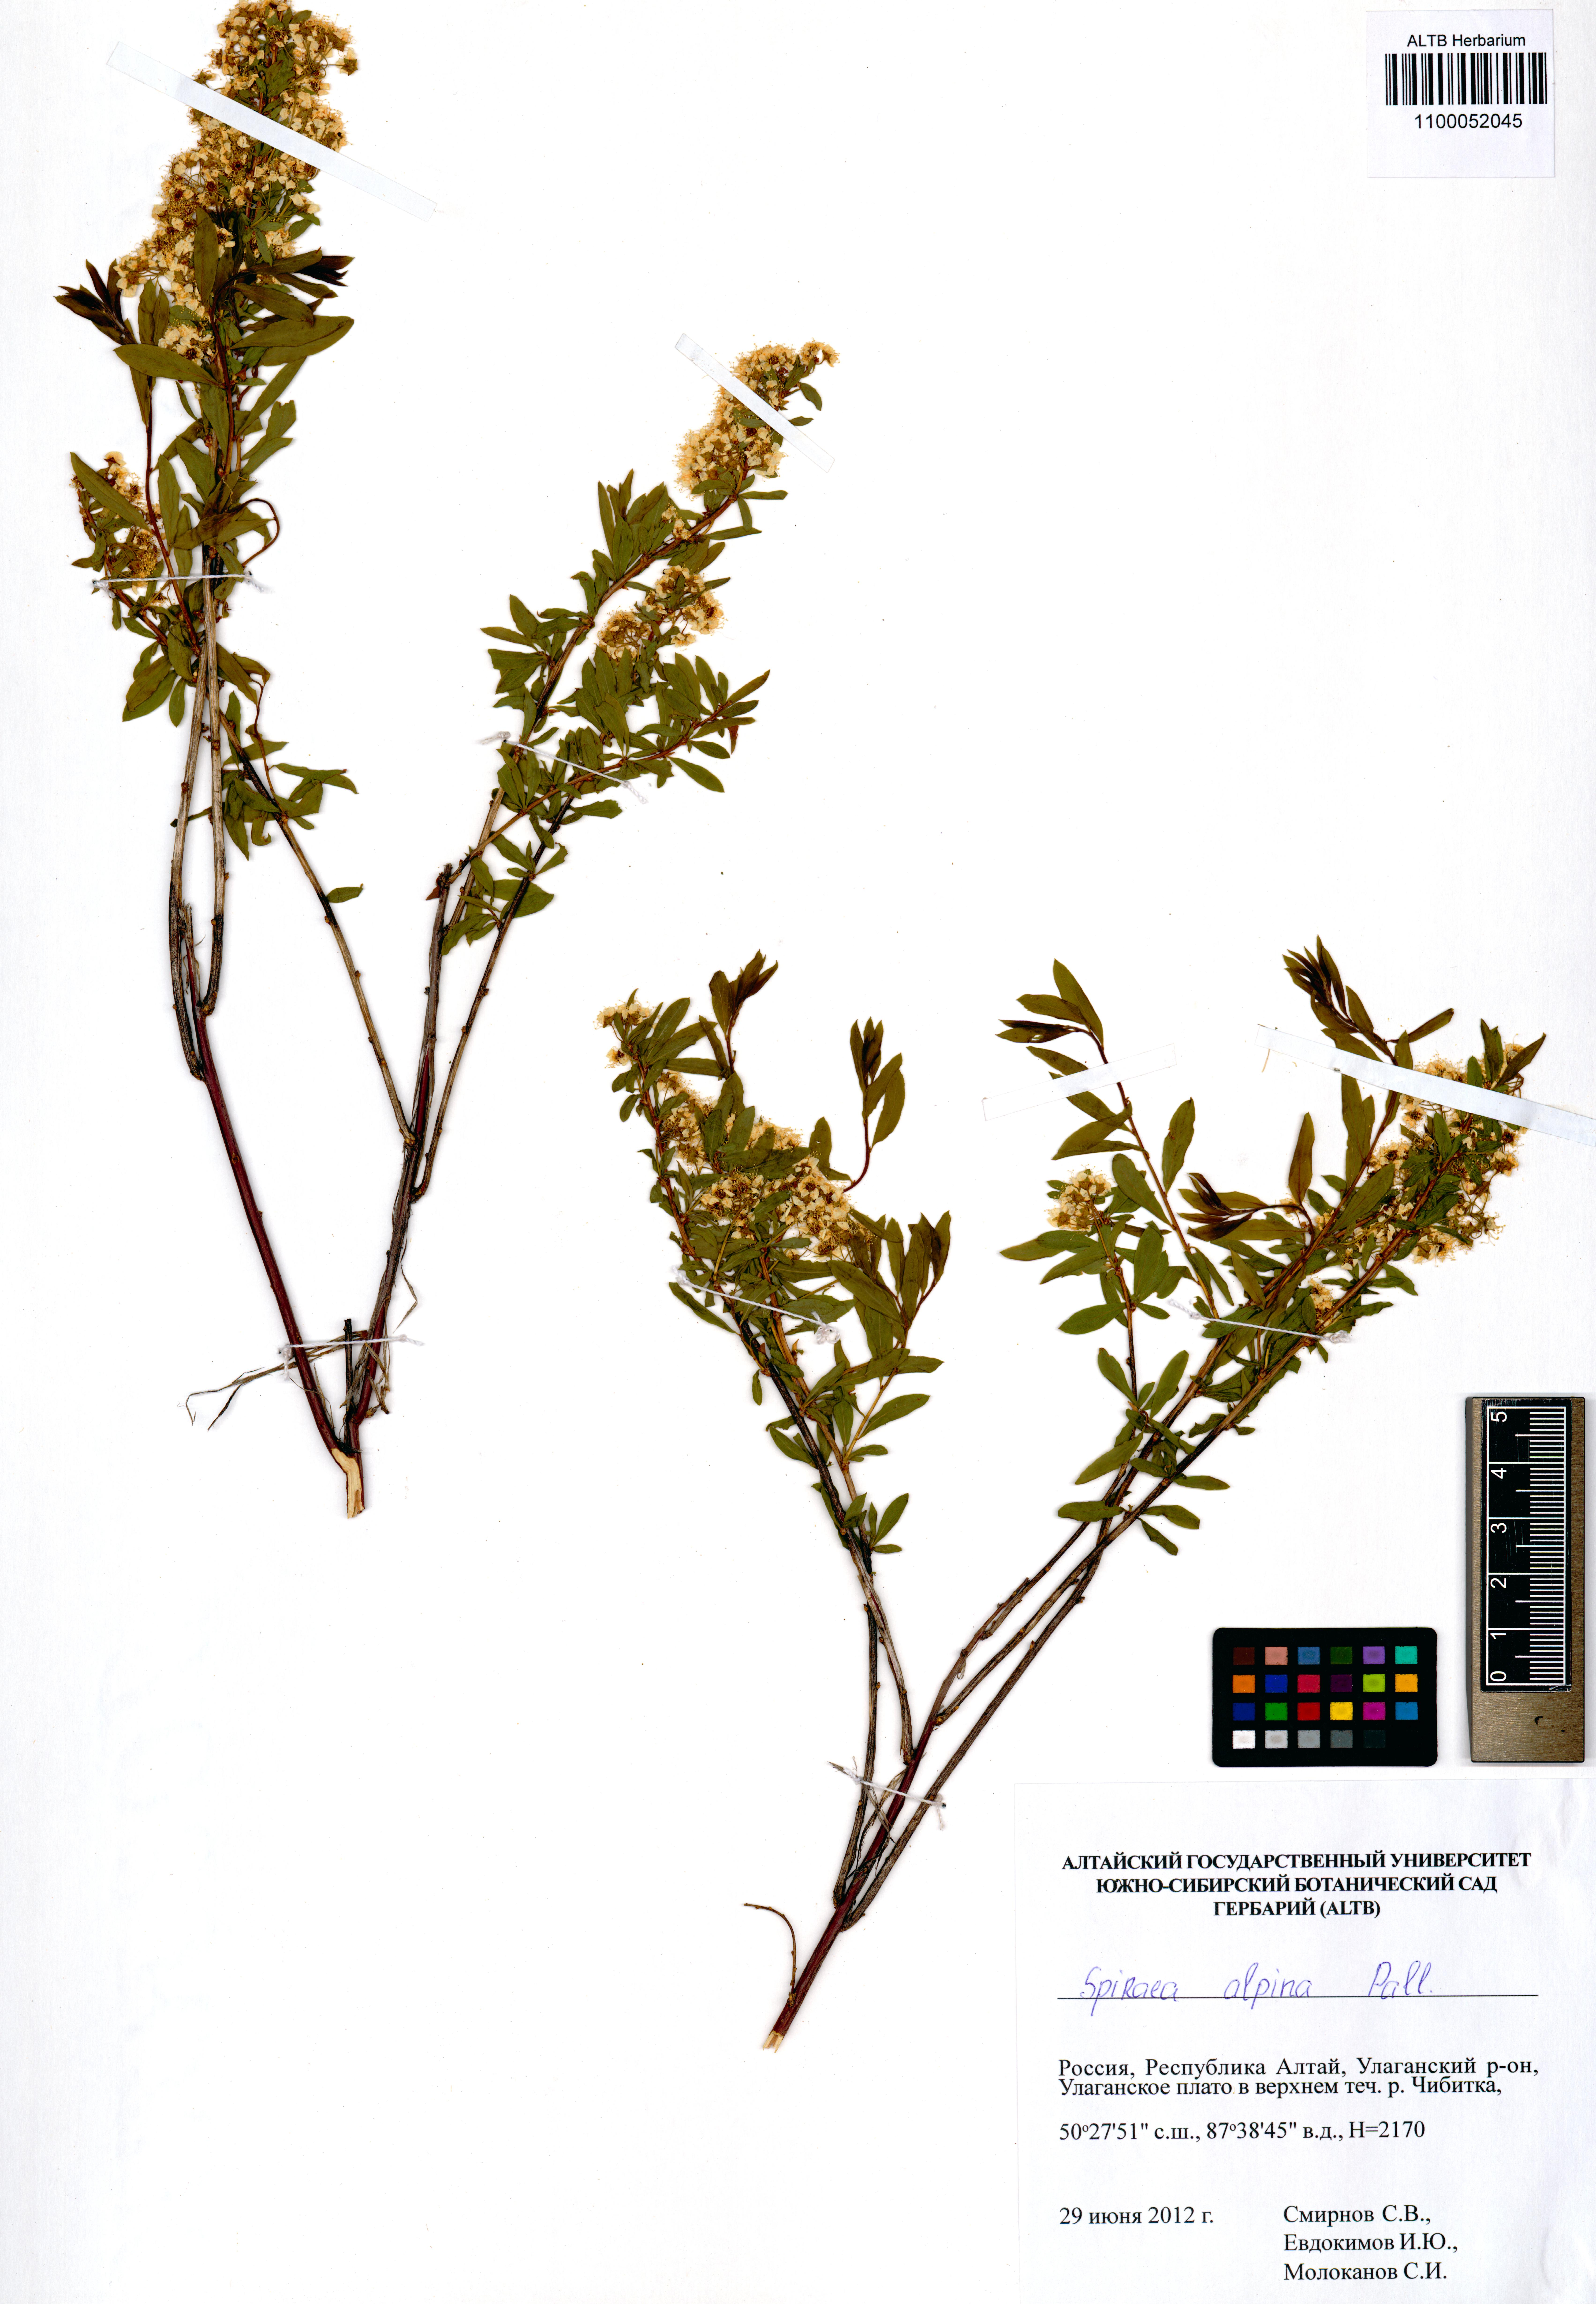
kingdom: Plantae
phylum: Tracheophyta
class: Magnoliopsida
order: Rosales
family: Rosaceae
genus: Spiraea
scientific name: Spiraea alpina
